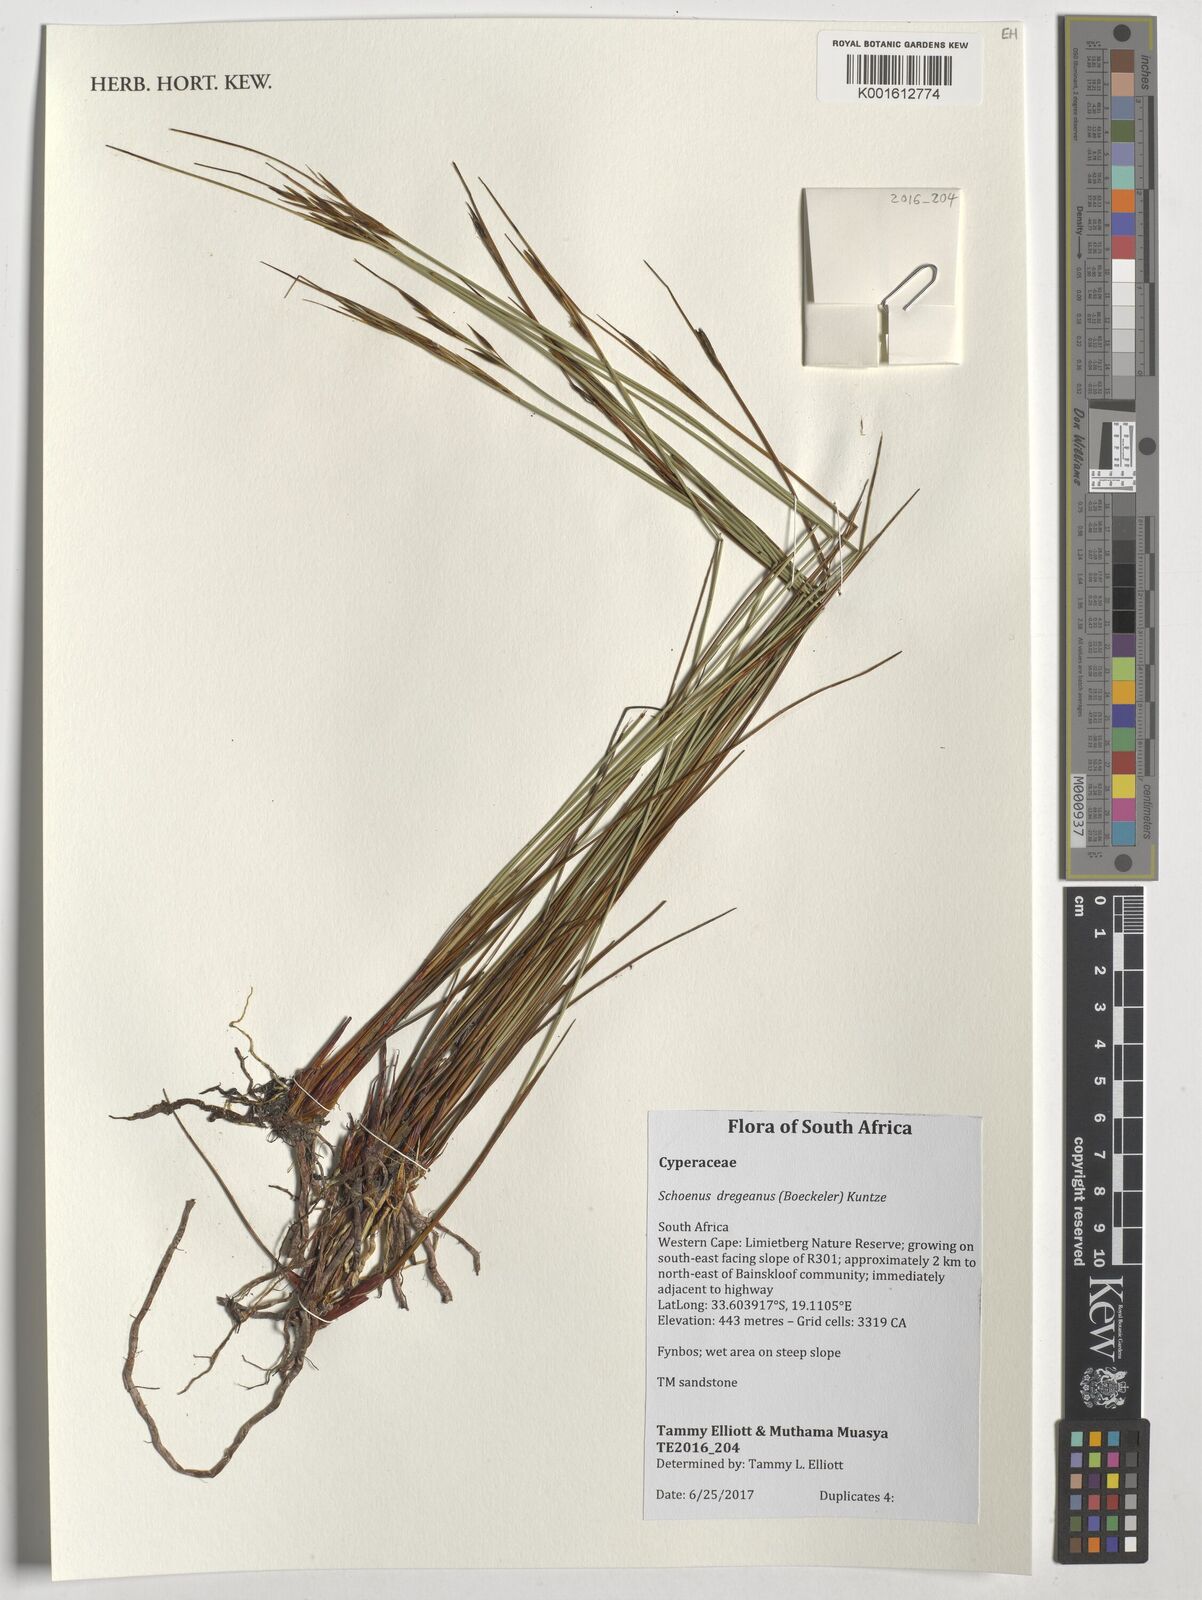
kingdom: Plantae
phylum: Tracheophyta
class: Liliopsida
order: Poales
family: Cyperaceae
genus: Schoenus
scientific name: Schoenus dregeanus
